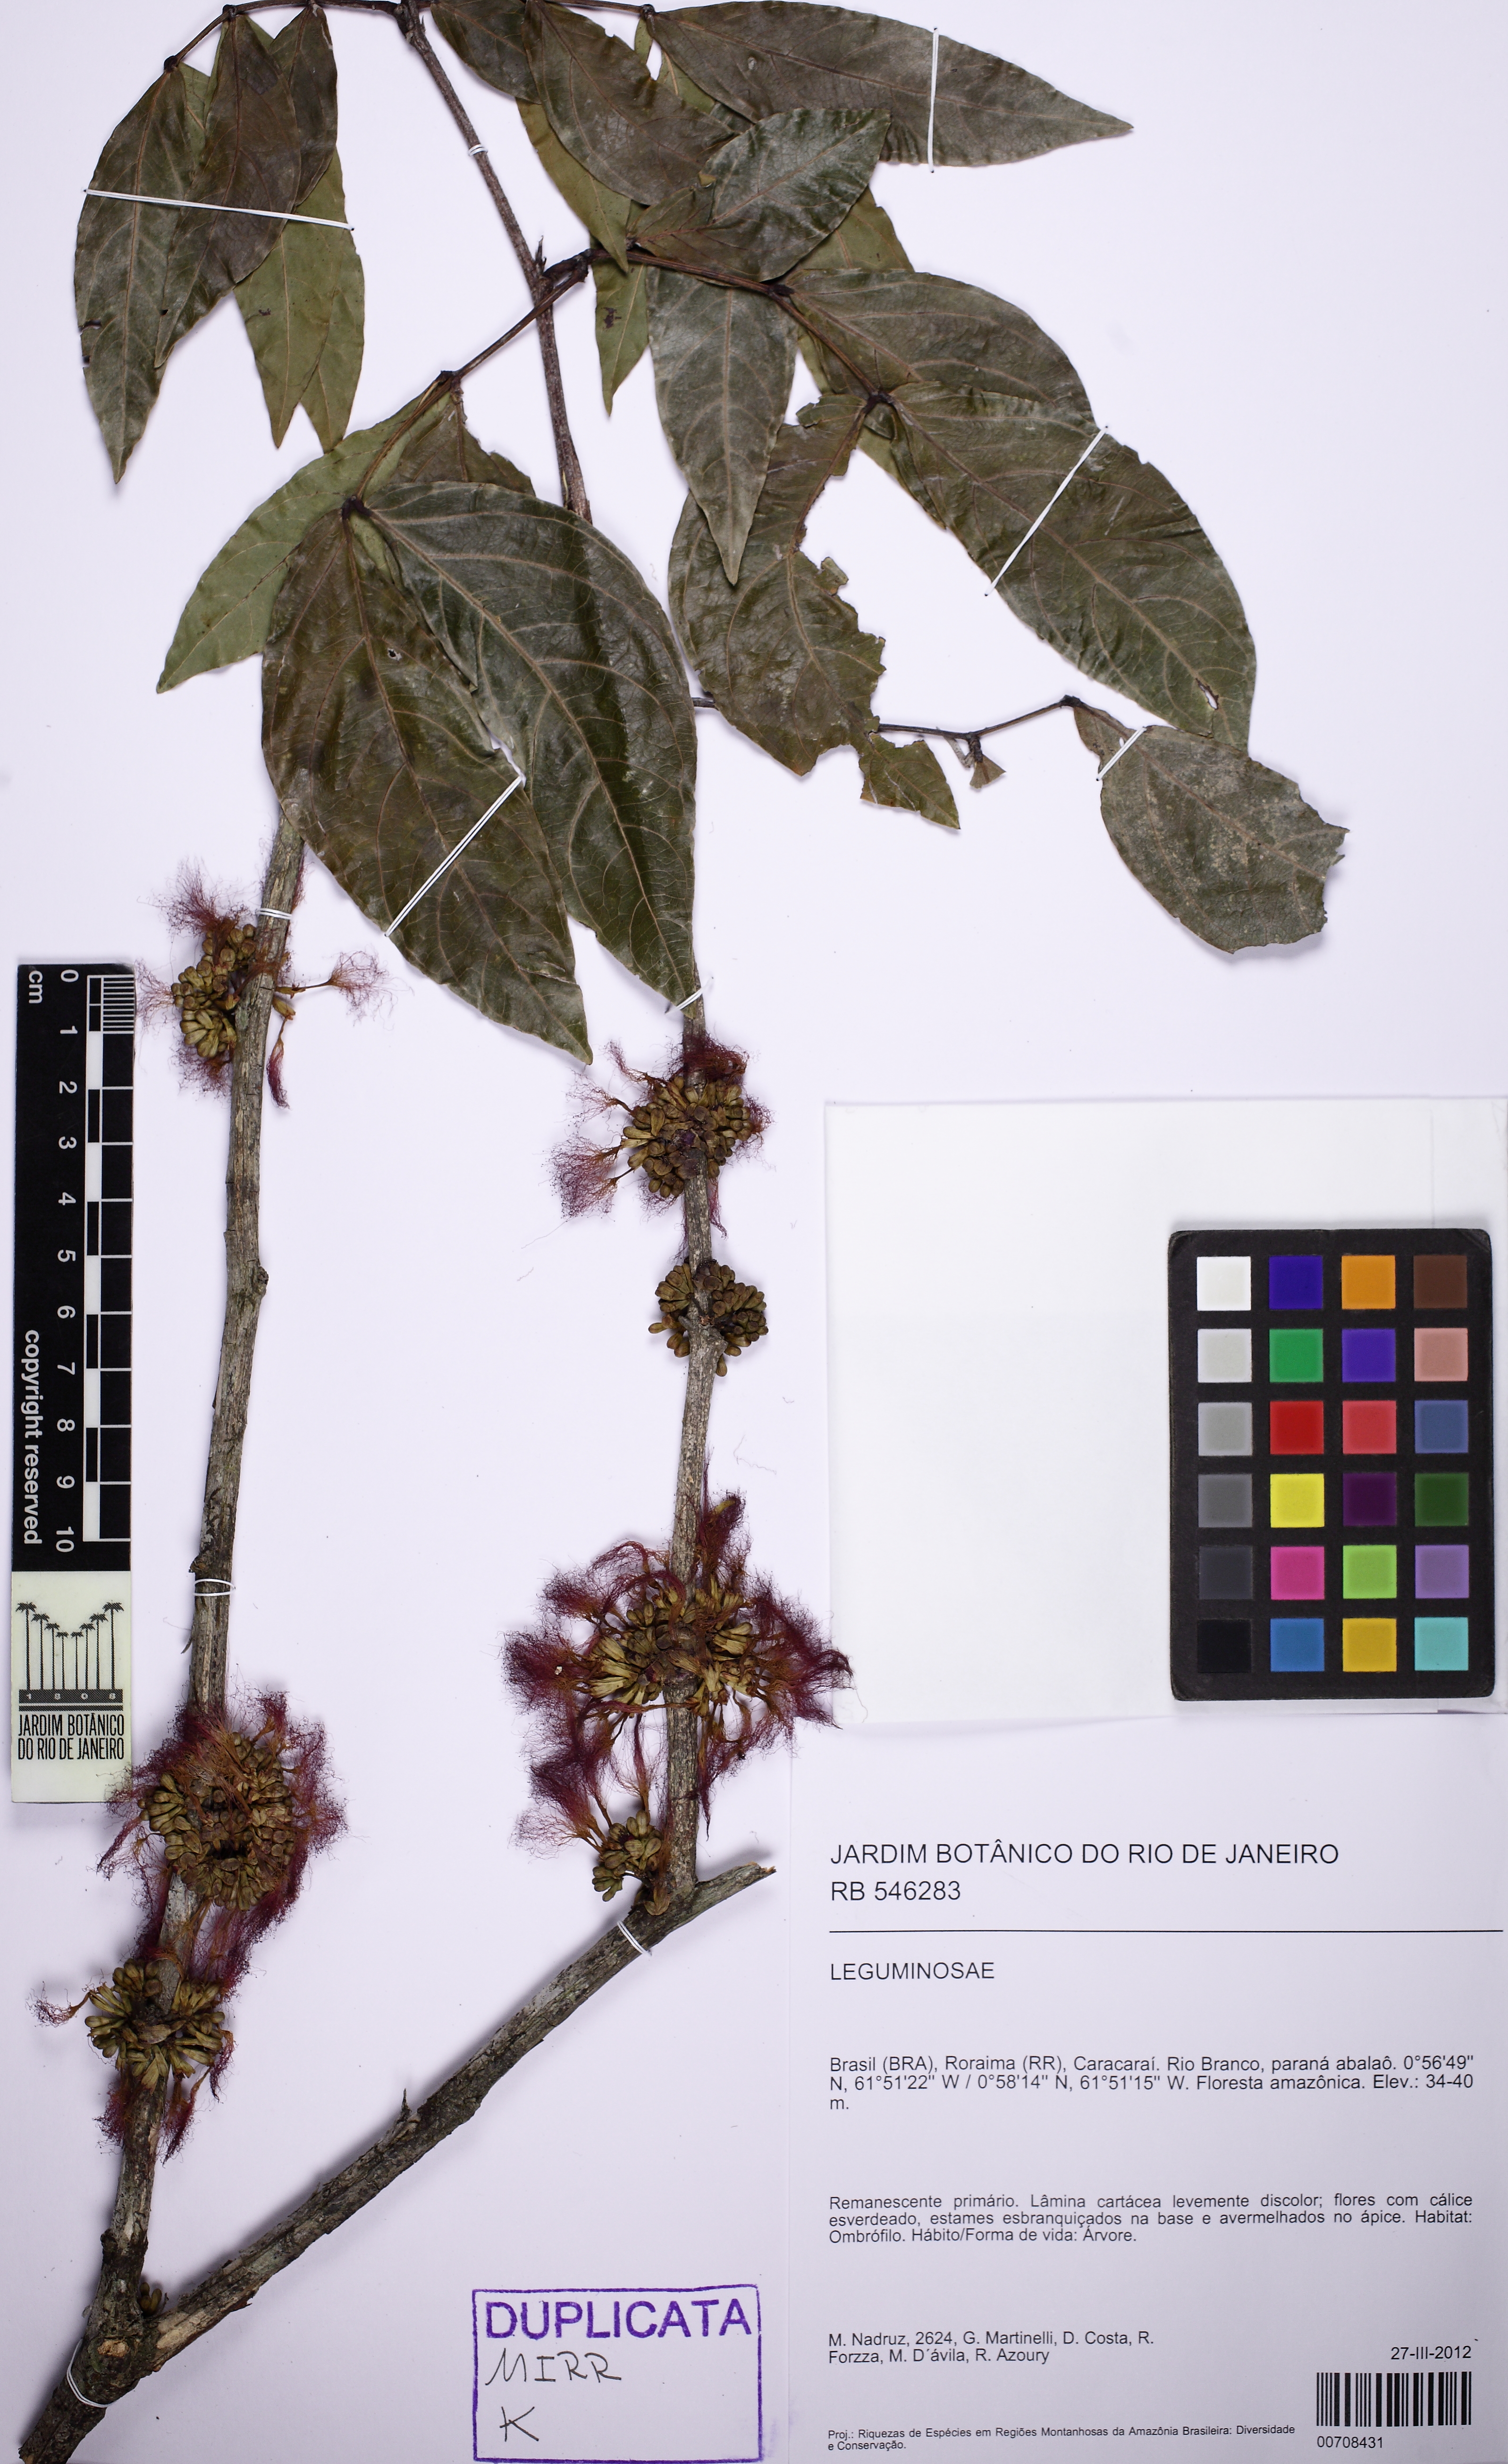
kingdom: Plantae
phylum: Tracheophyta
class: Magnoliopsida
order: Fabales
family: Fabaceae
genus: Inga
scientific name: Inga inundata
